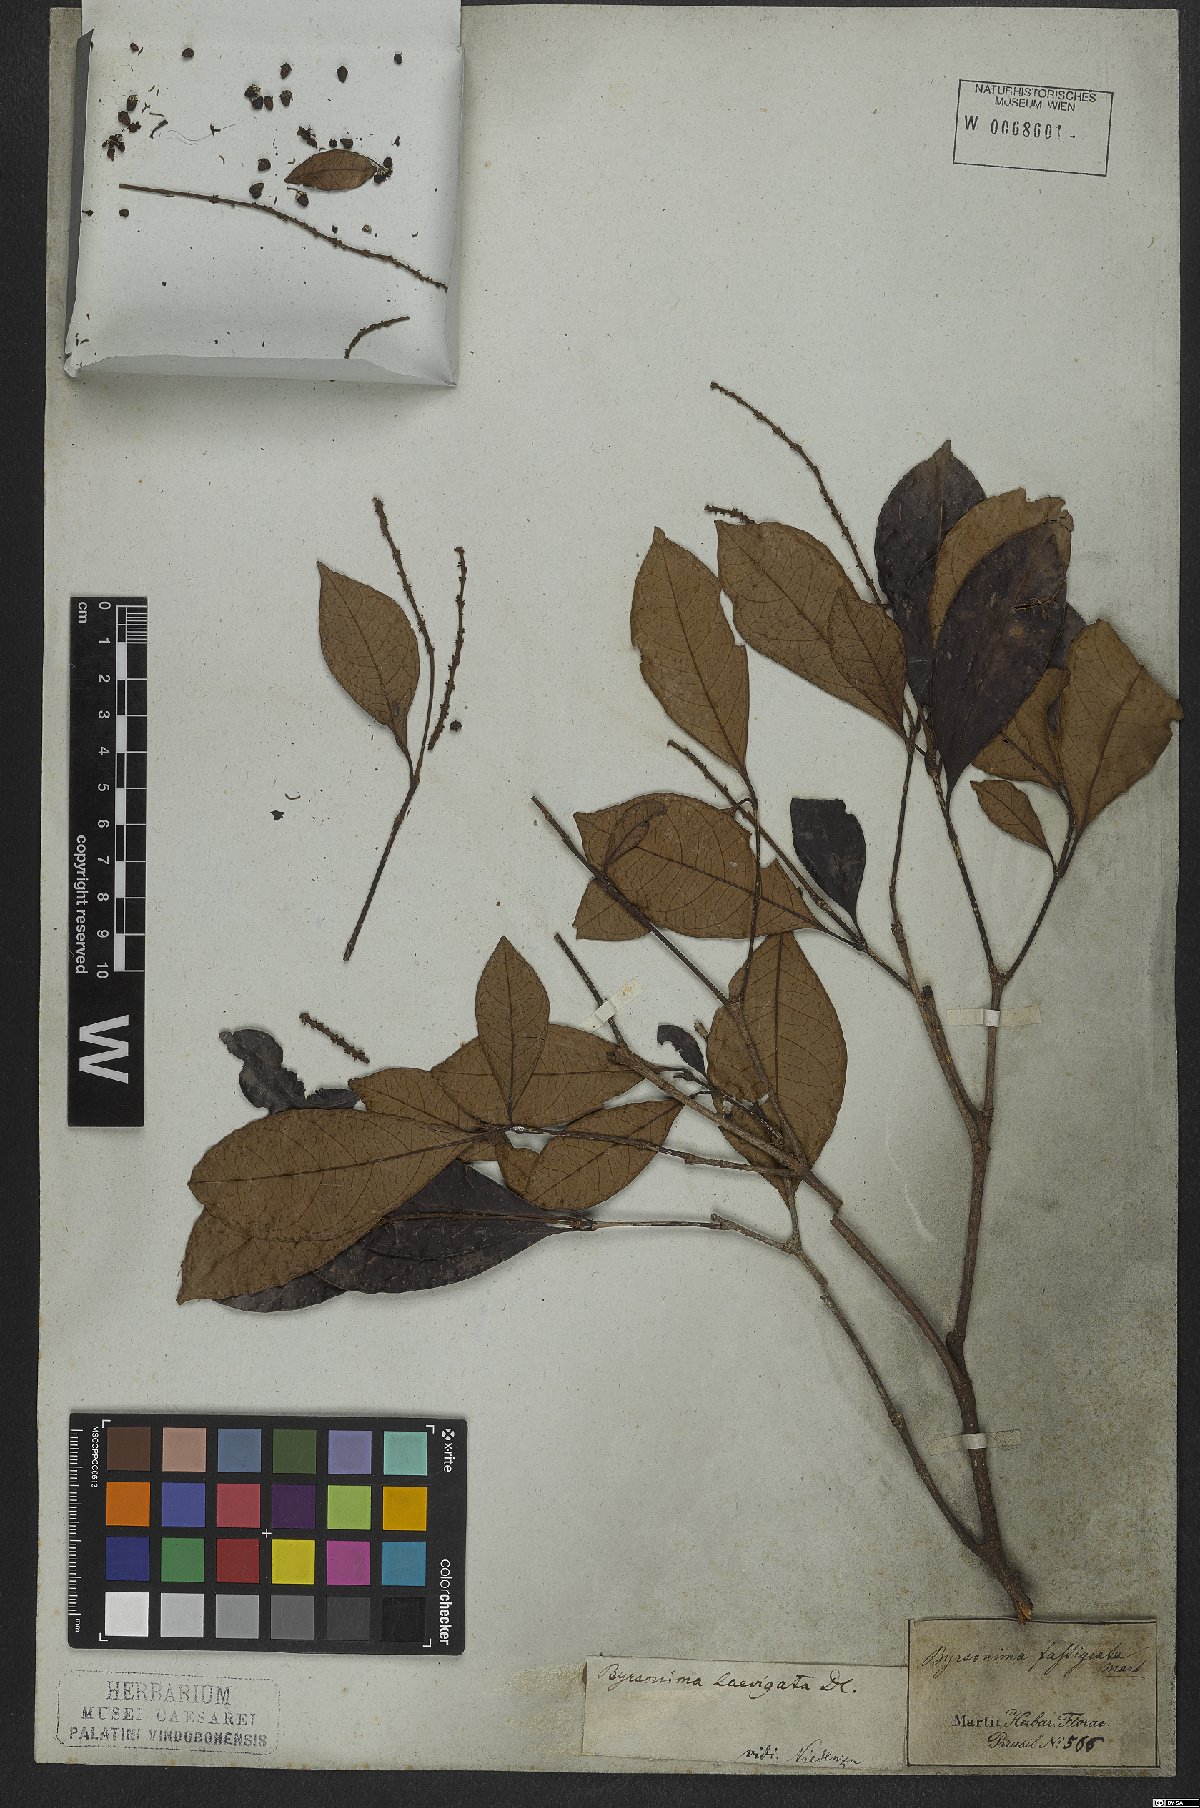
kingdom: Plantae
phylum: Tracheophyta
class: Magnoliopsida
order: Malpighiales
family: Malpighiaceae
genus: Byrsonima
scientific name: Byrsonima laevigata
